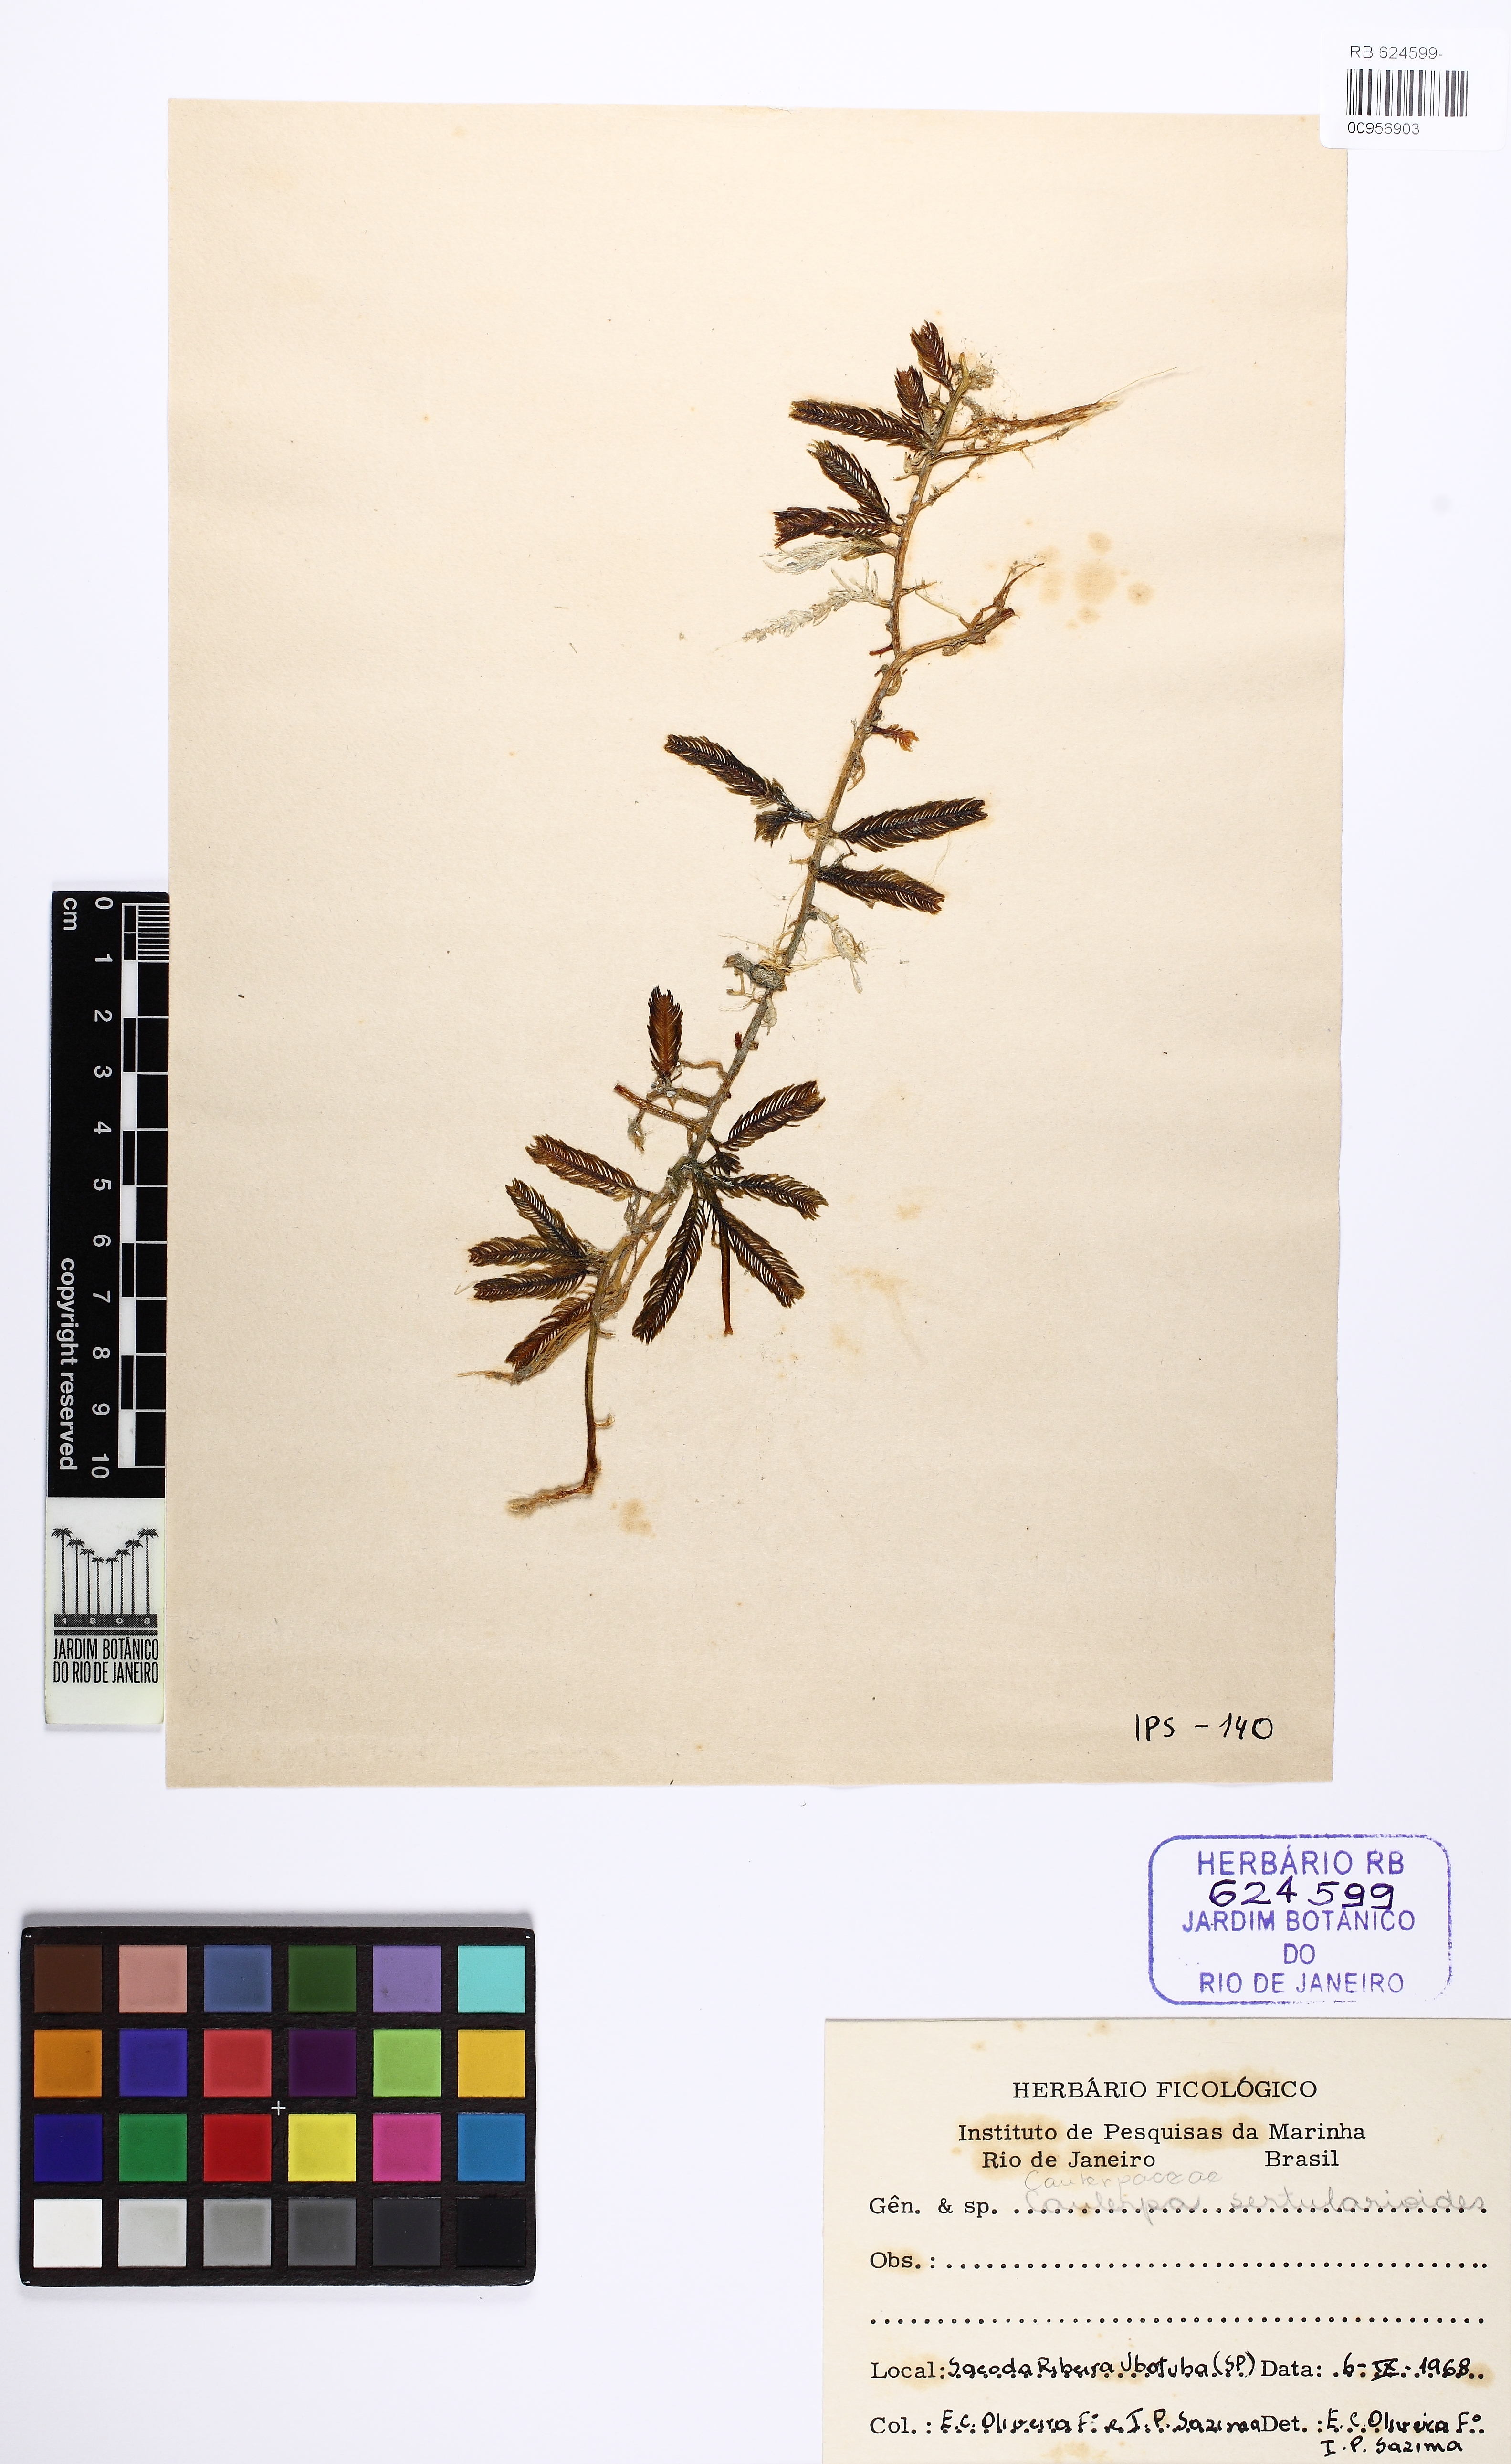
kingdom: Plantae
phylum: Chlorophyta
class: Ulvophyceae
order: Bryopsidales
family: Caulerpaceae
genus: Caulerpa
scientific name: Caulerpa sertularioides
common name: Green feather algae
